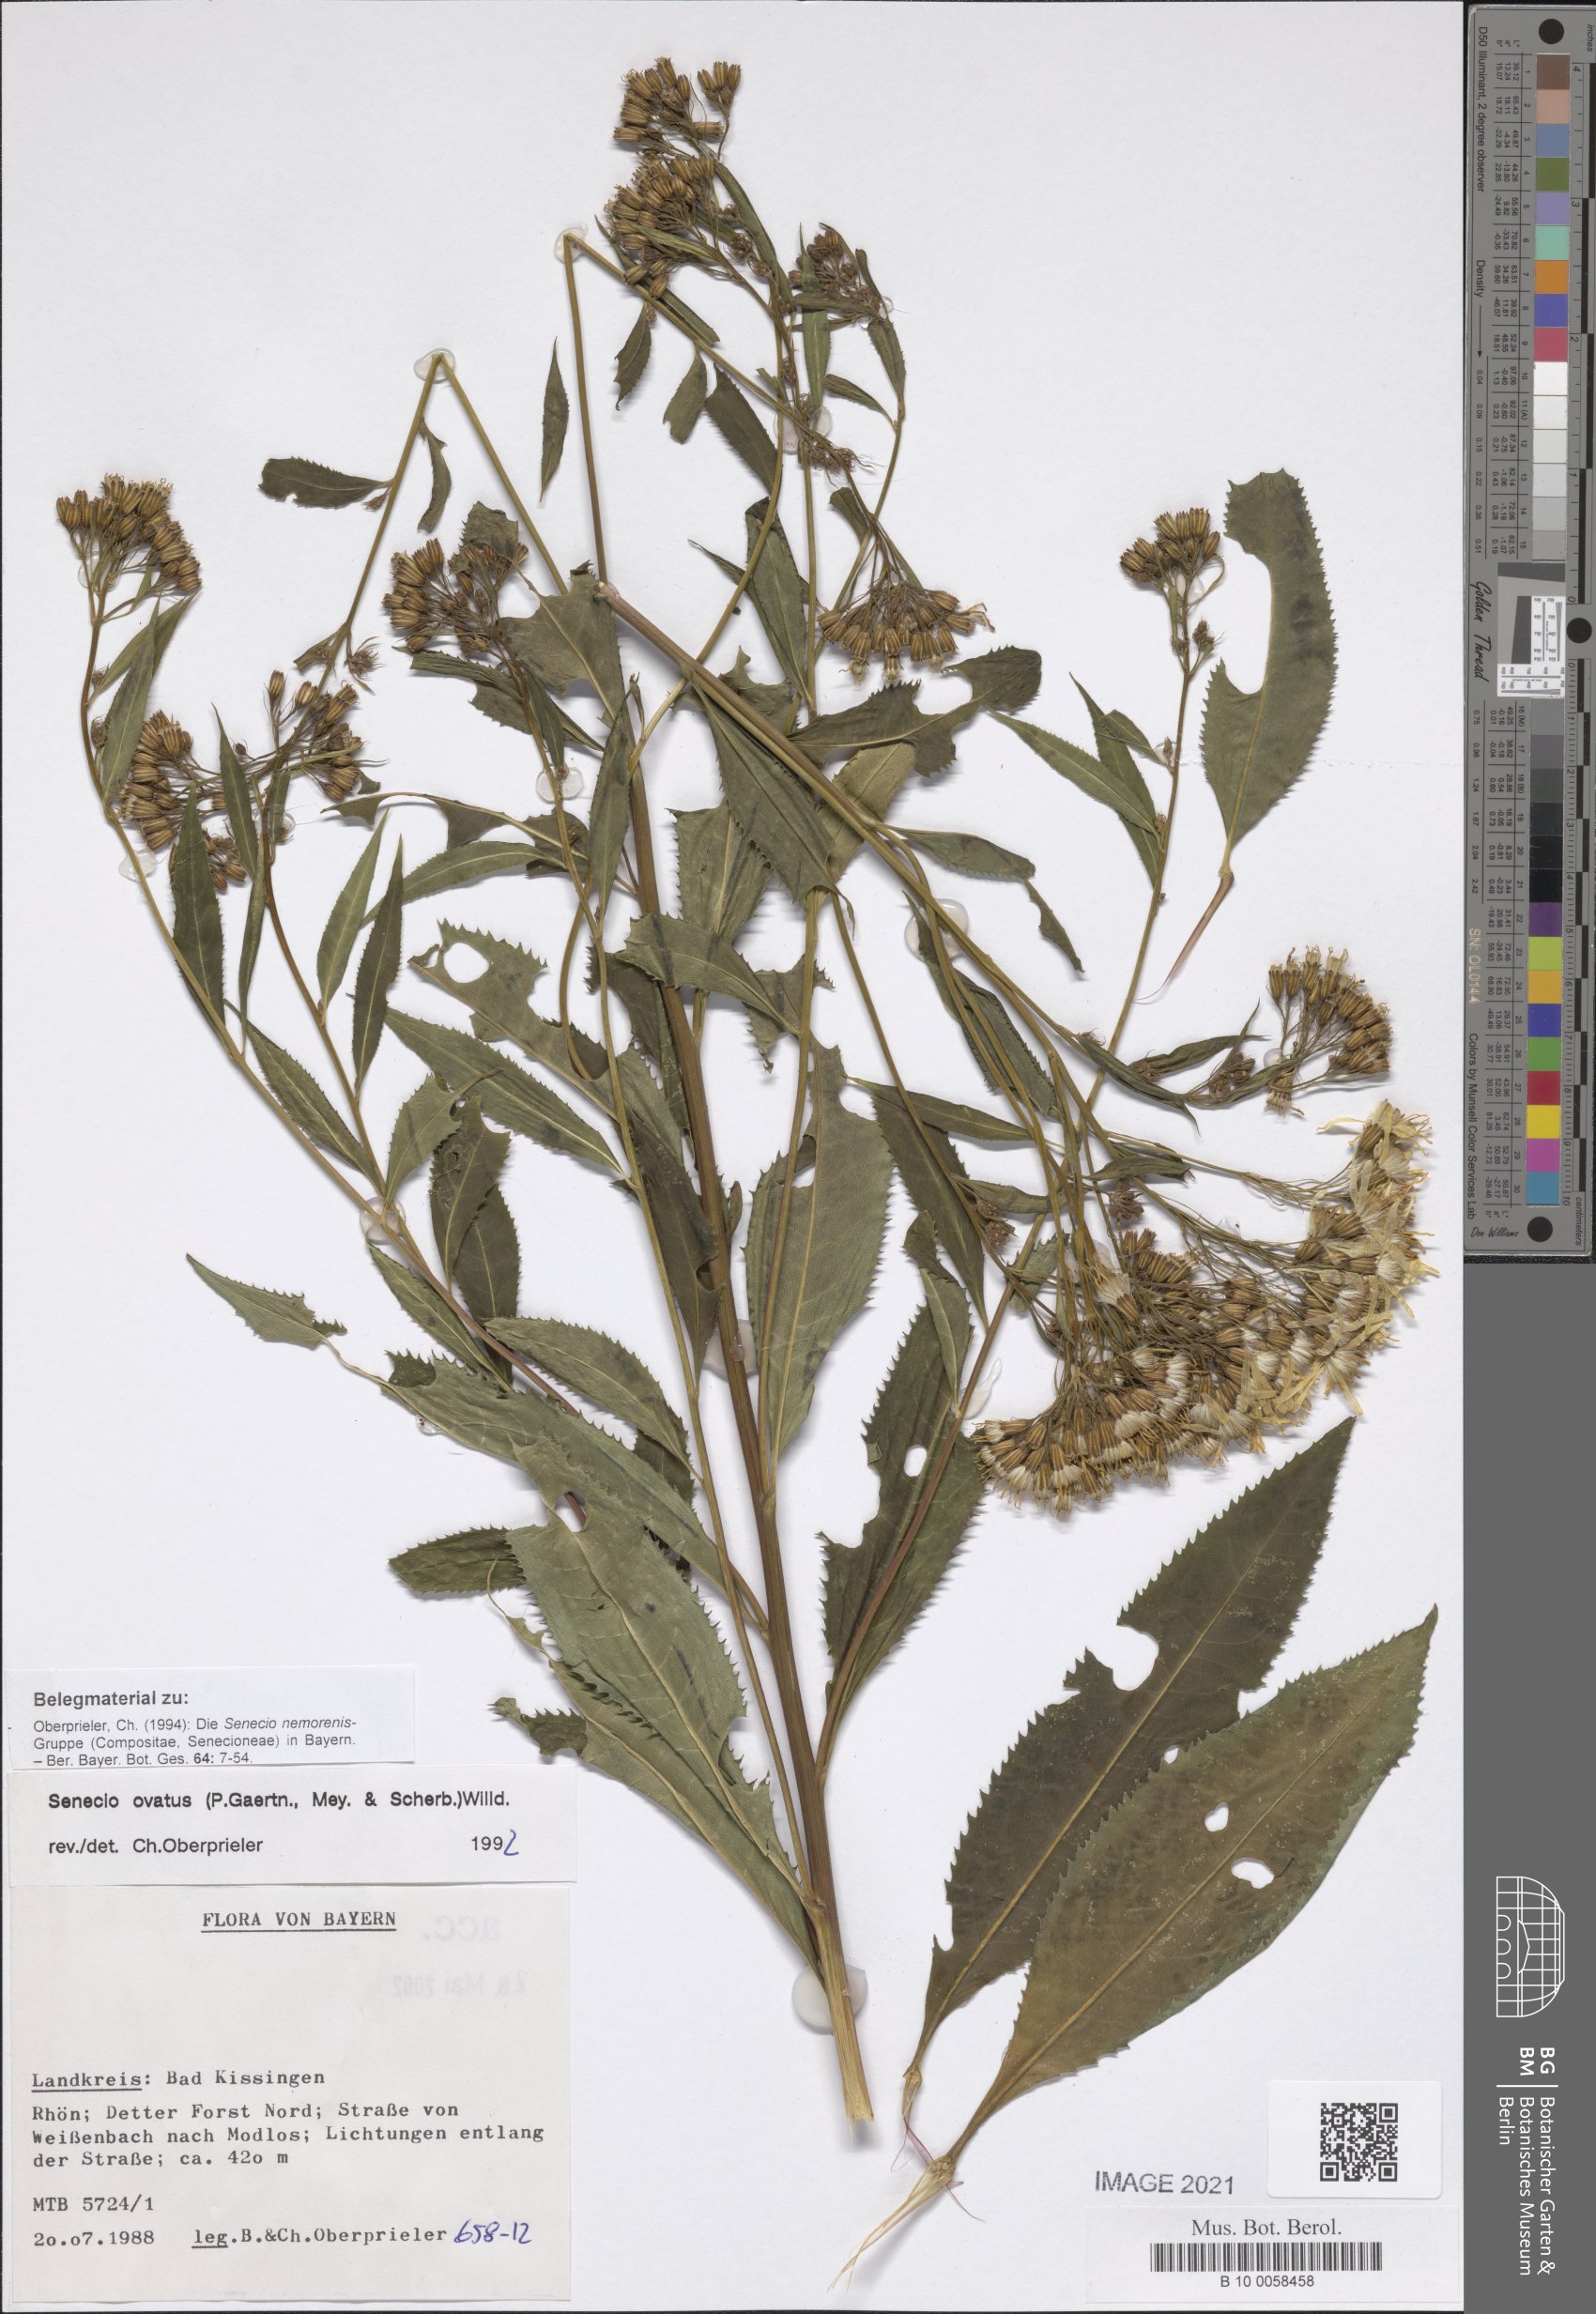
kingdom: Plantae
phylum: Tracheophyta
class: Magnoliopsida
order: Asterales
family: Asteraceae
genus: Senecio
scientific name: Senecio ovatus
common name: Wood ragwort
